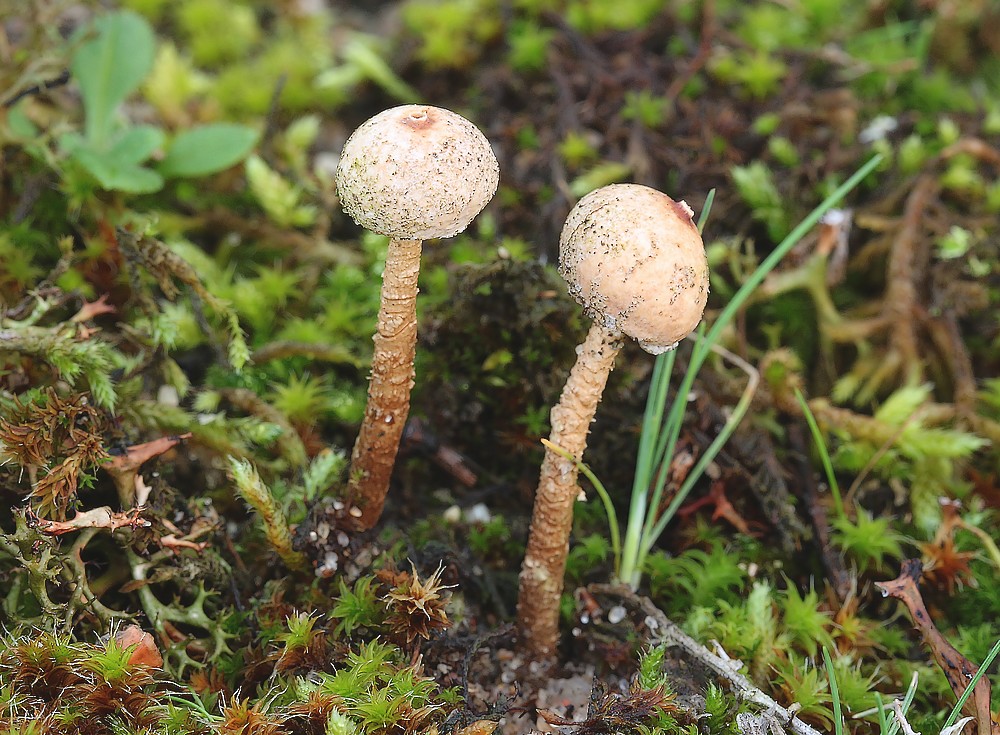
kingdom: Fungi
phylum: Basidiomycota
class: Agaricomycetes
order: Agaricales
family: Agaricaceae
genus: Tulostoma
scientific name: Tulostoma brumale
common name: vinter-stilkbovist
